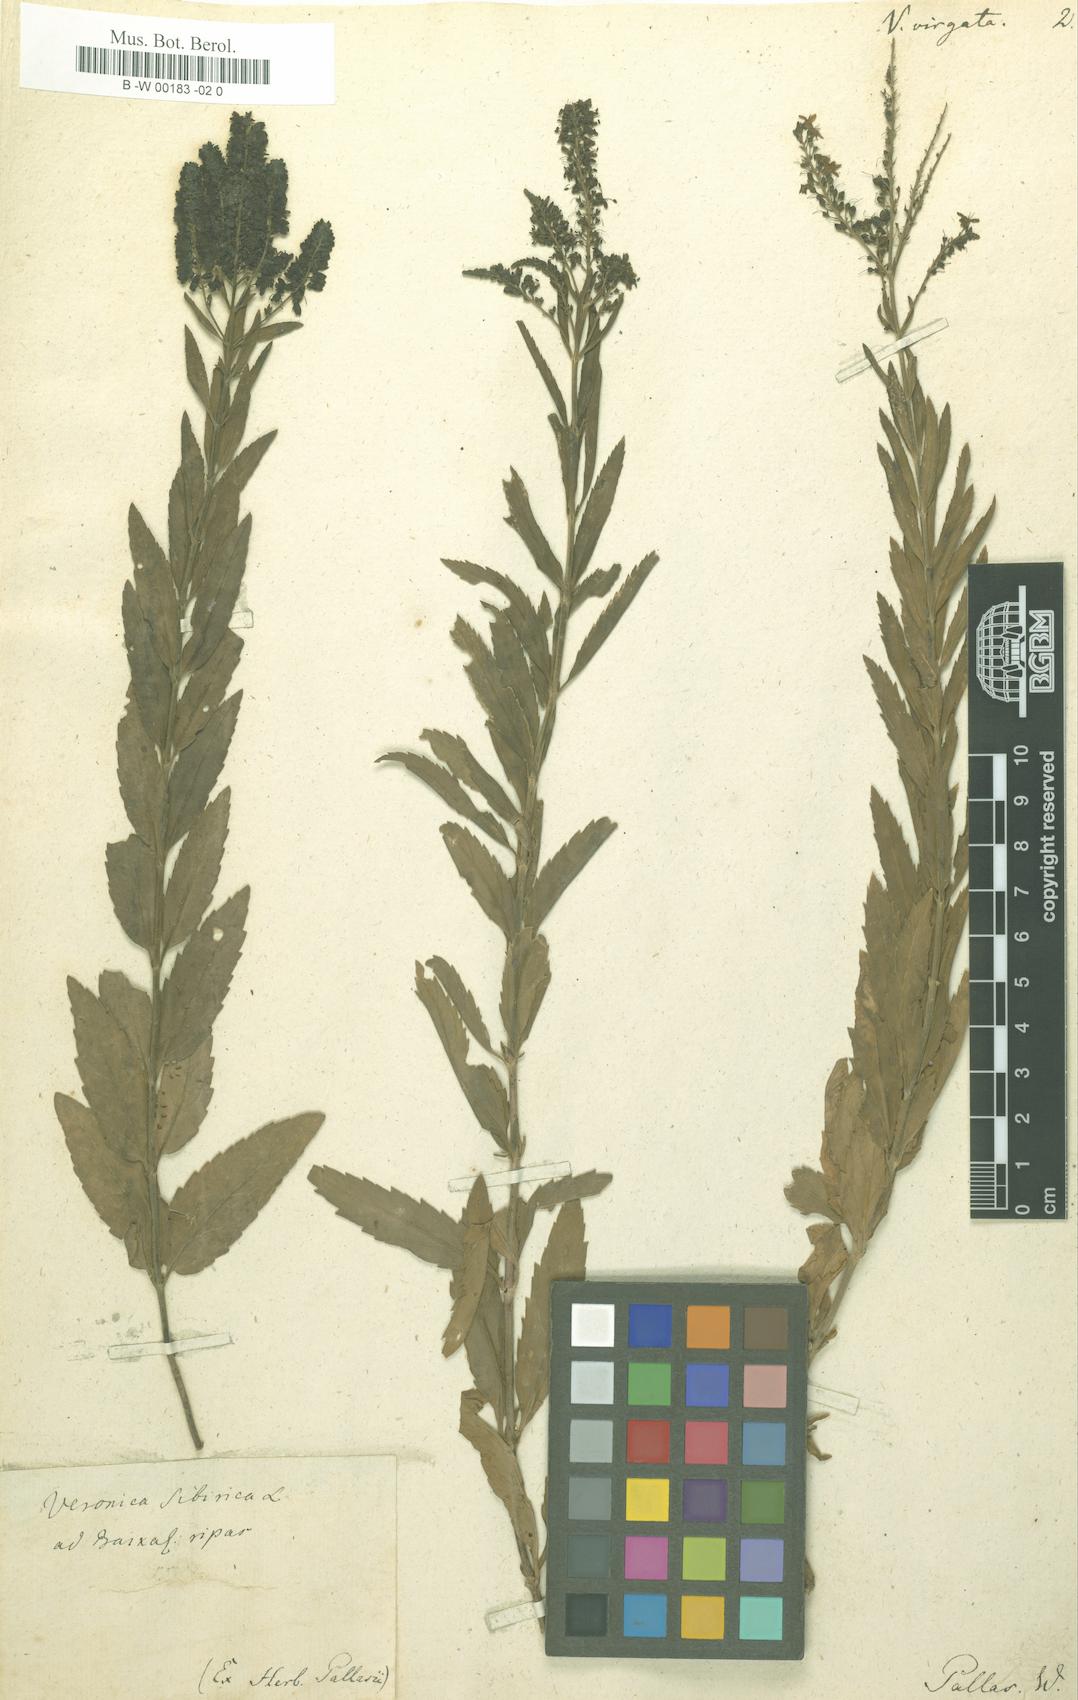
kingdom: Plantae
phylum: Tracheophyta
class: Magnoliopsida
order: Lamiales
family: Plantaginaceae
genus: Veronica
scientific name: Veronica
